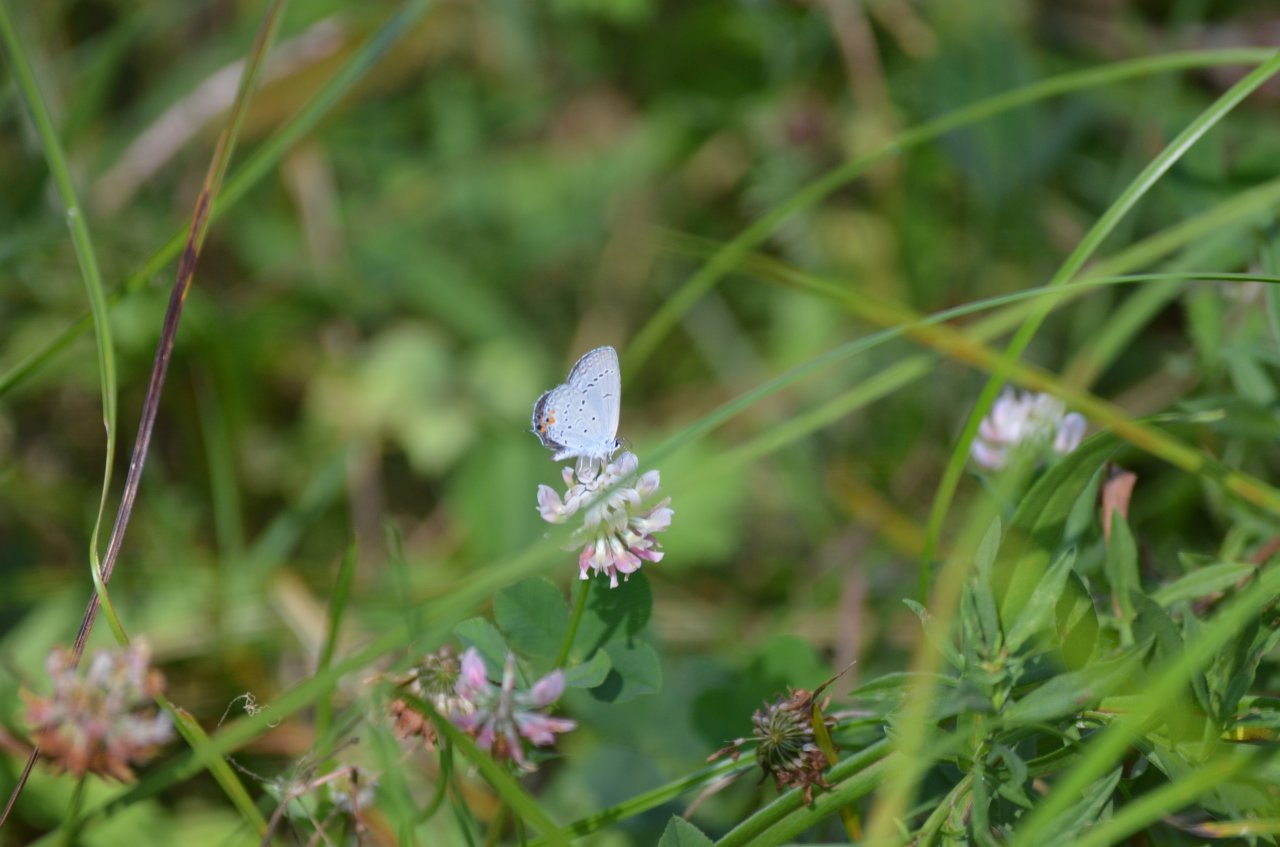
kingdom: Animalia
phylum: Arthropoda
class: Insecta
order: Lepidoptera
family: Lycaenidae
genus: Elkalyce
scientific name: Elkalyce comyntas
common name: Eastern Tailed-Blue
